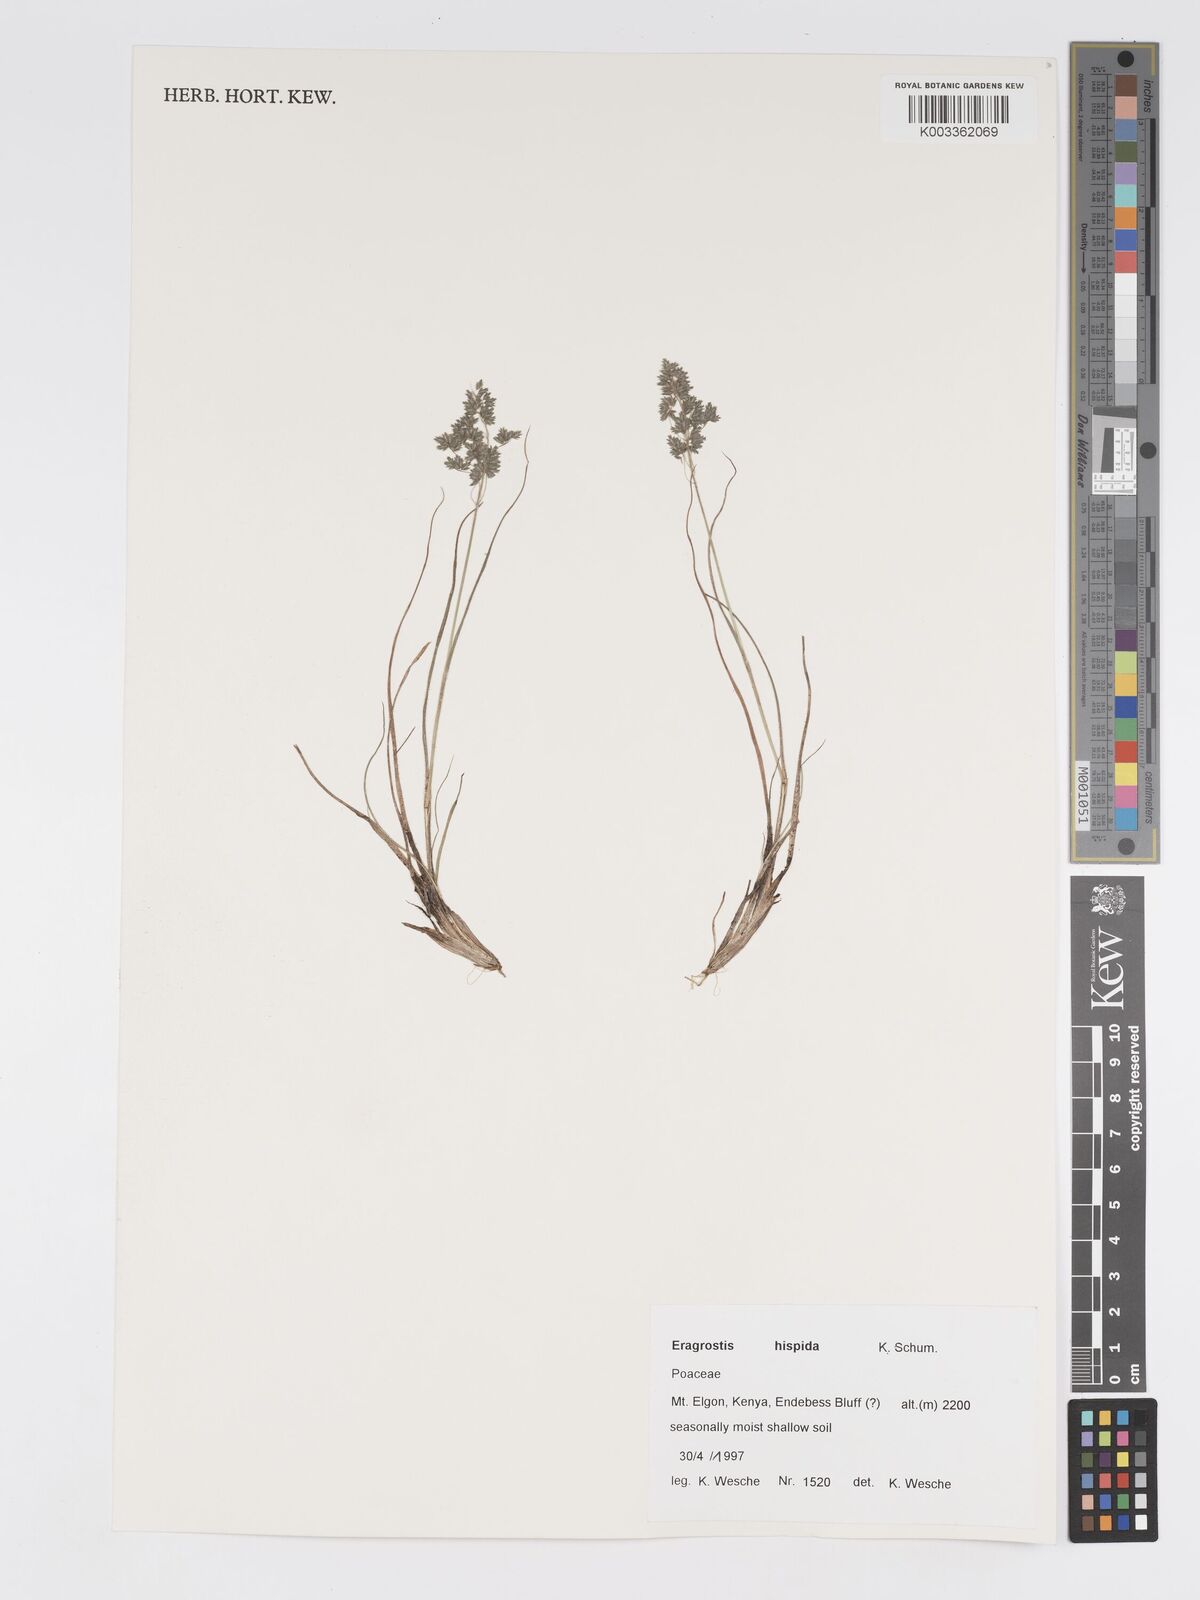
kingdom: Plantae
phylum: Tracheophyta
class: Liliopsida
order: Poales
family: Poaceae
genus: Eragrostis
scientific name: Eragrostis hispida
